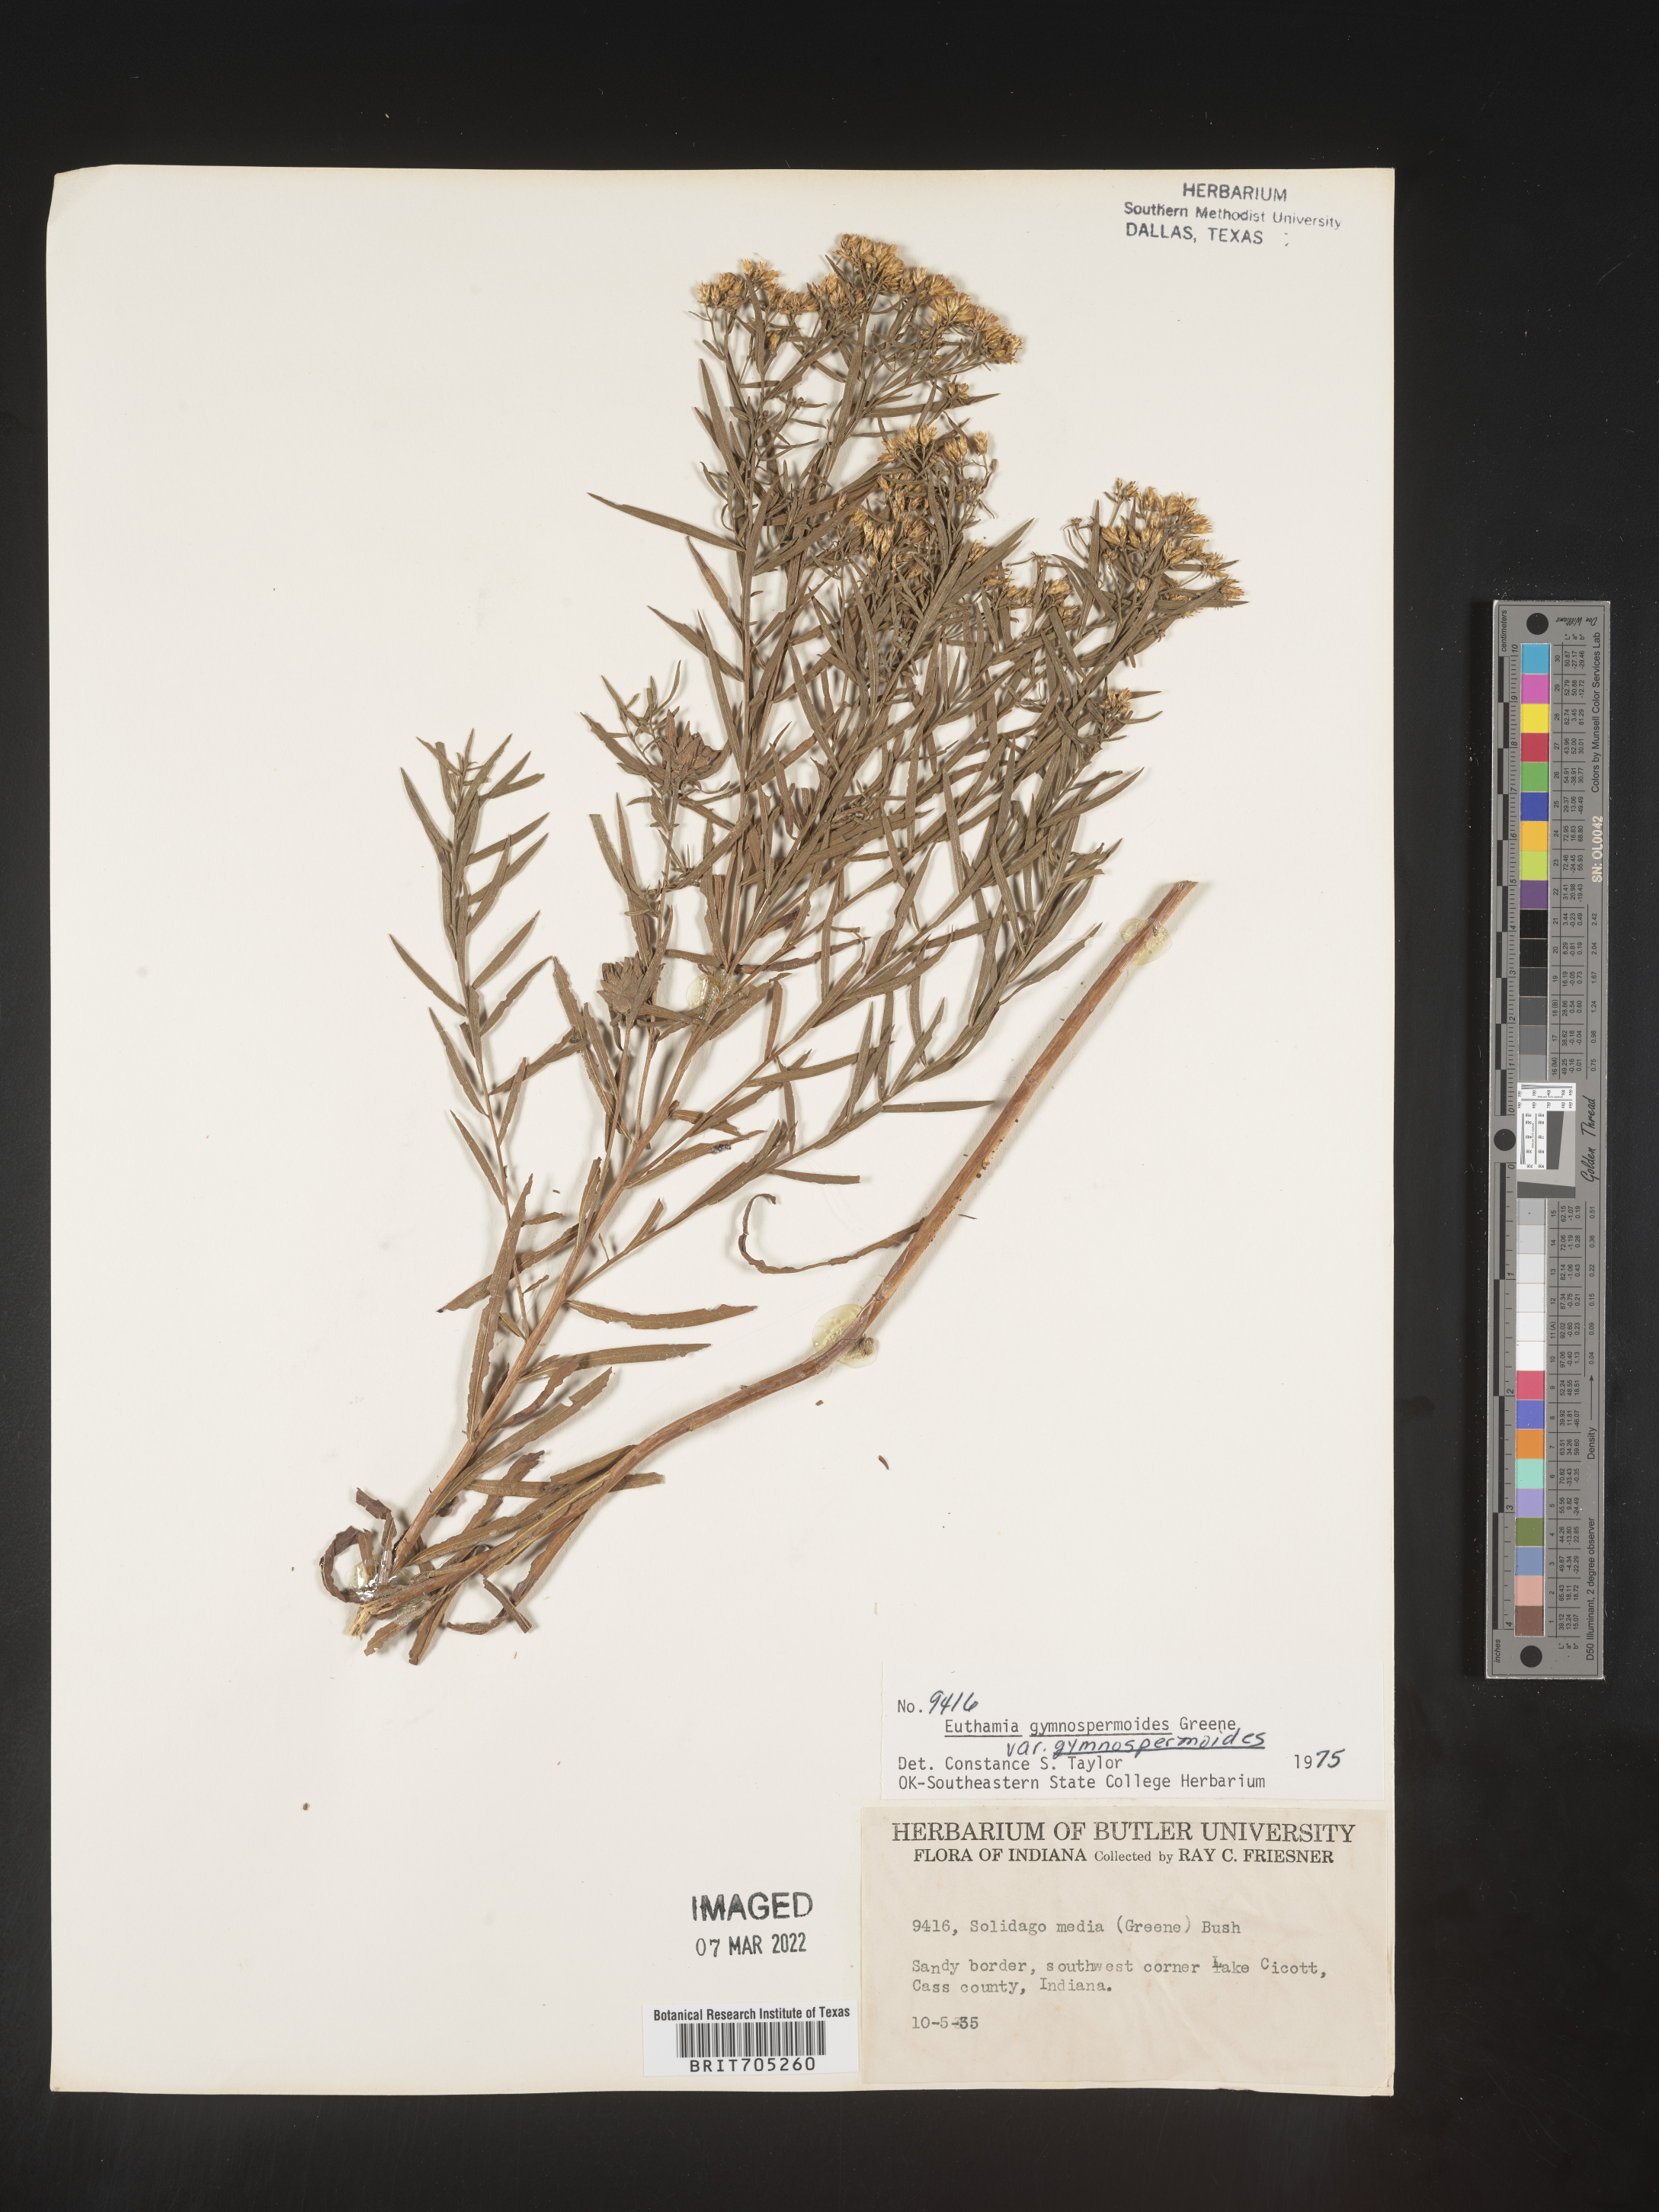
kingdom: Plantae
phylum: Tracheophyta
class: Magnoliopsida
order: Asterales
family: Asteraceae
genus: Euthamia
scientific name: Euthamia gymnospermoides
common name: Great plains goldentop
